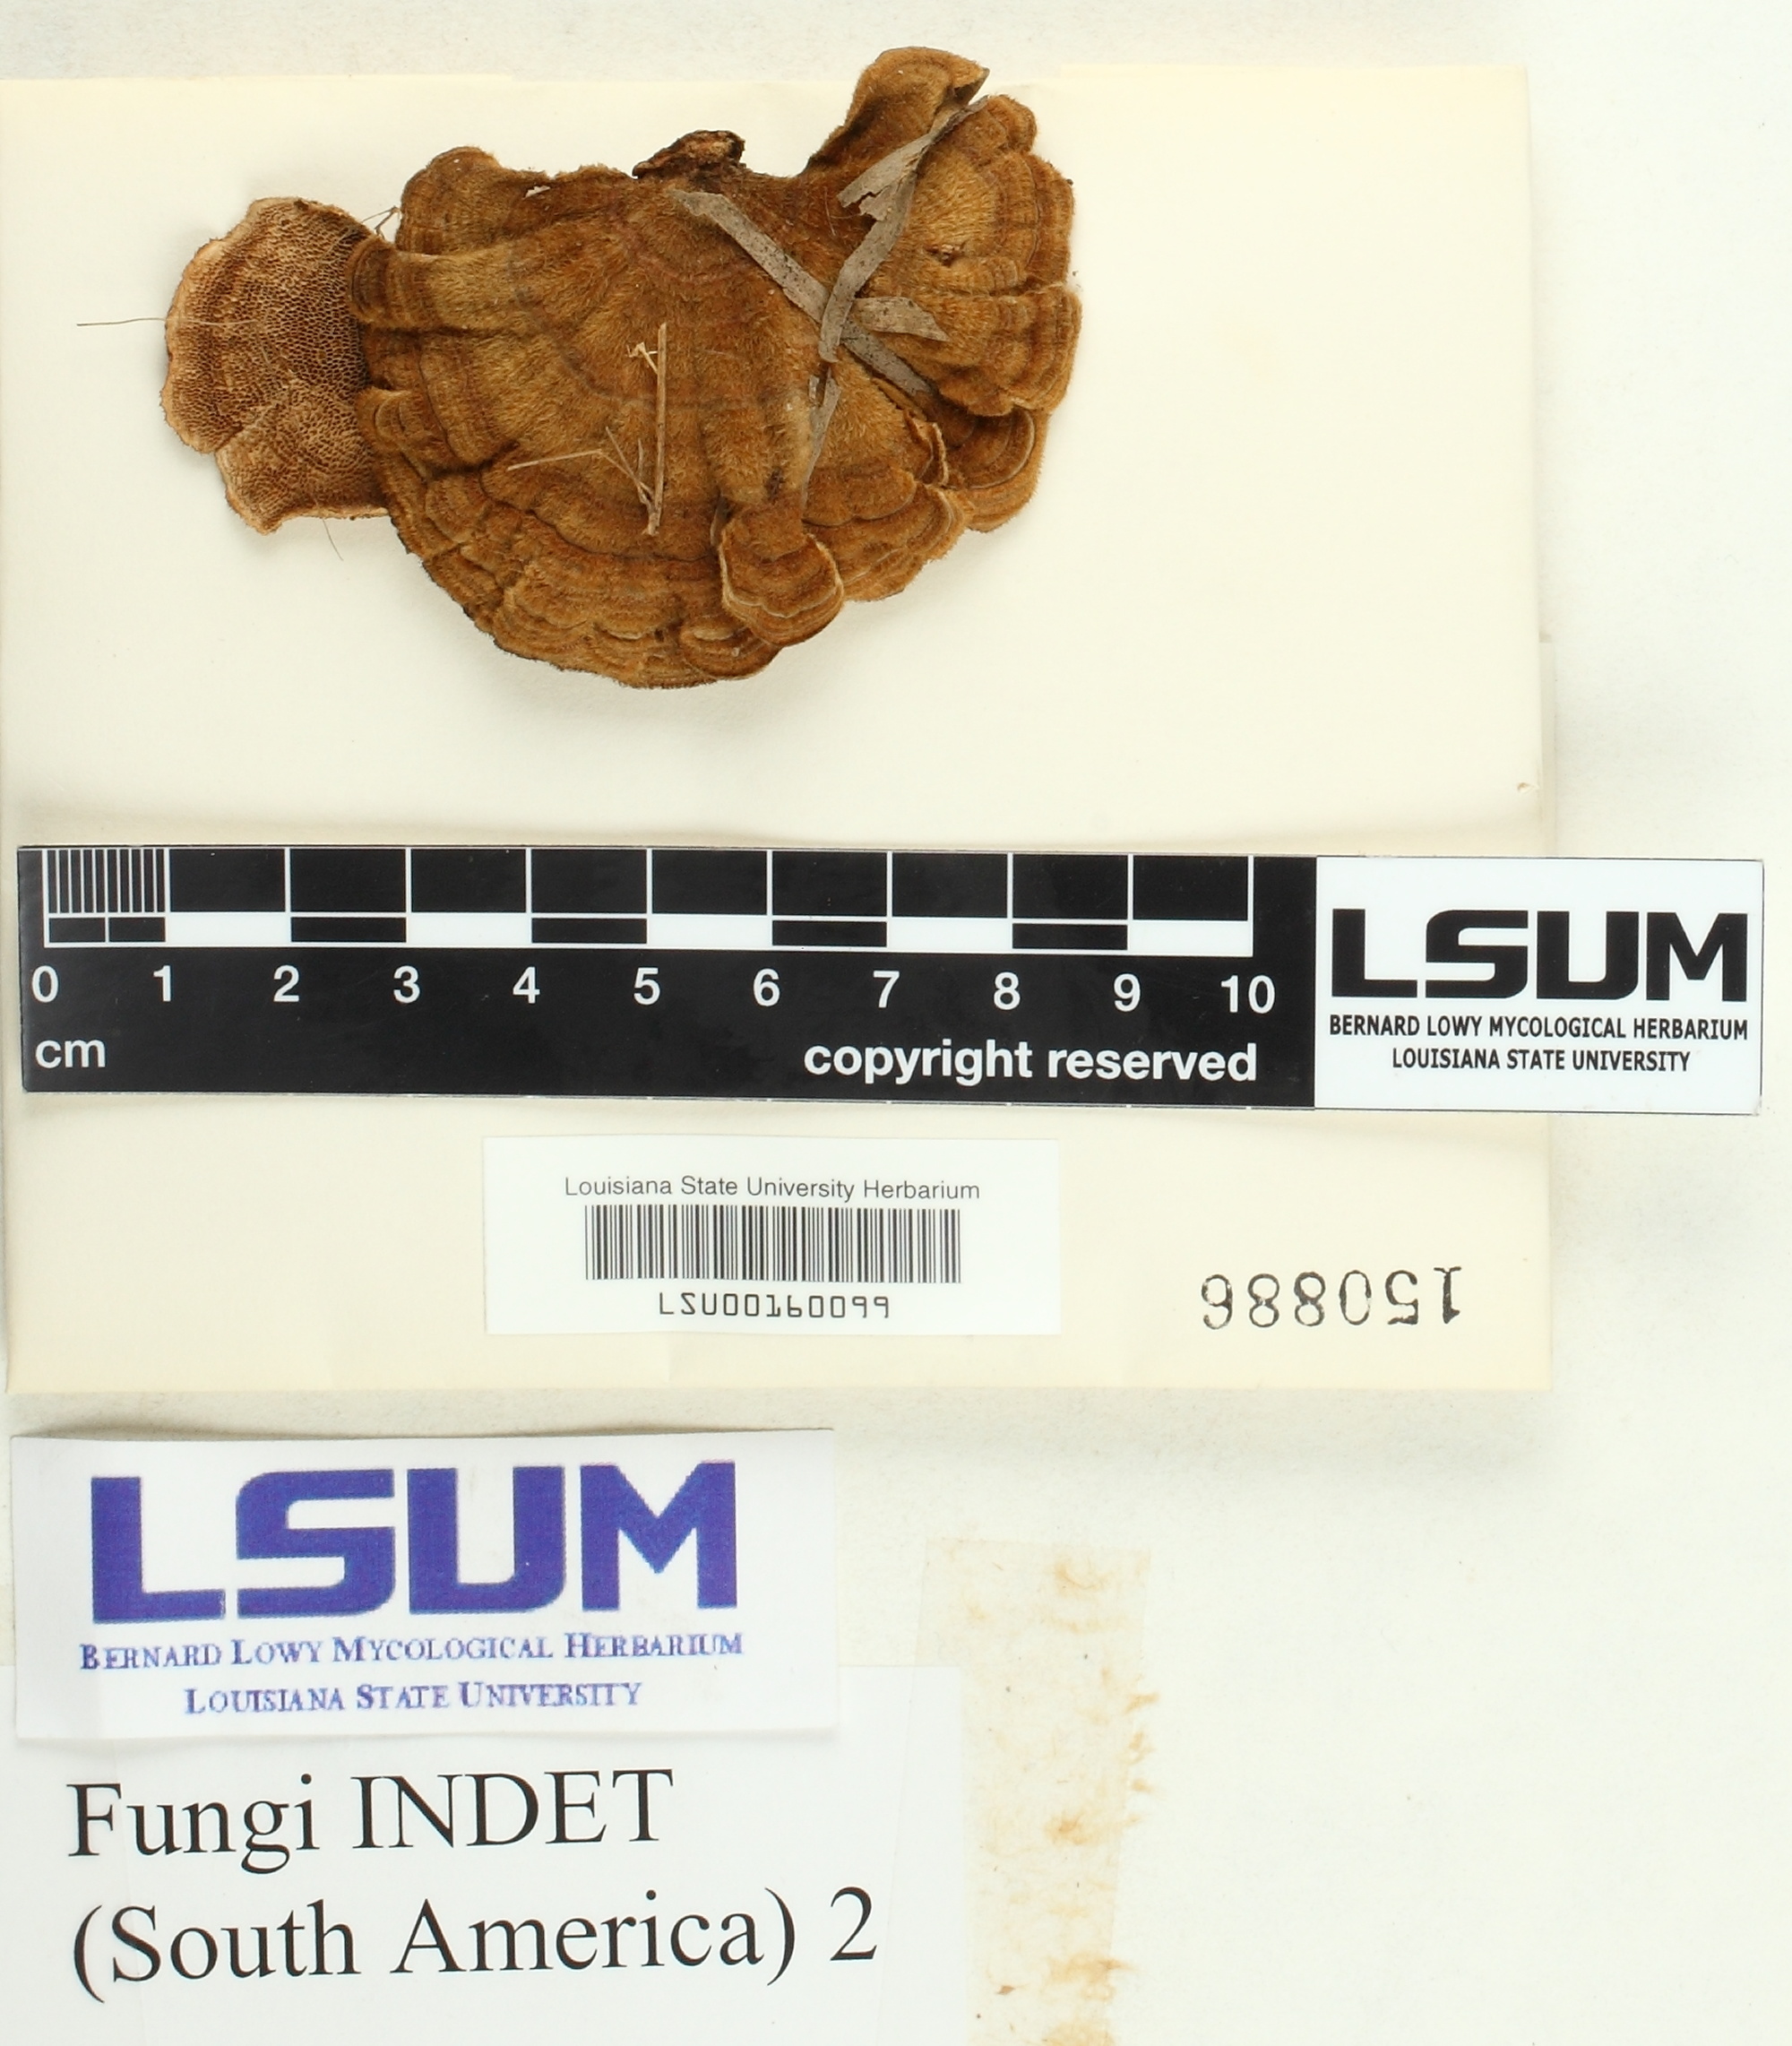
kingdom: Fungi
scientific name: Fungi
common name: Fungi
